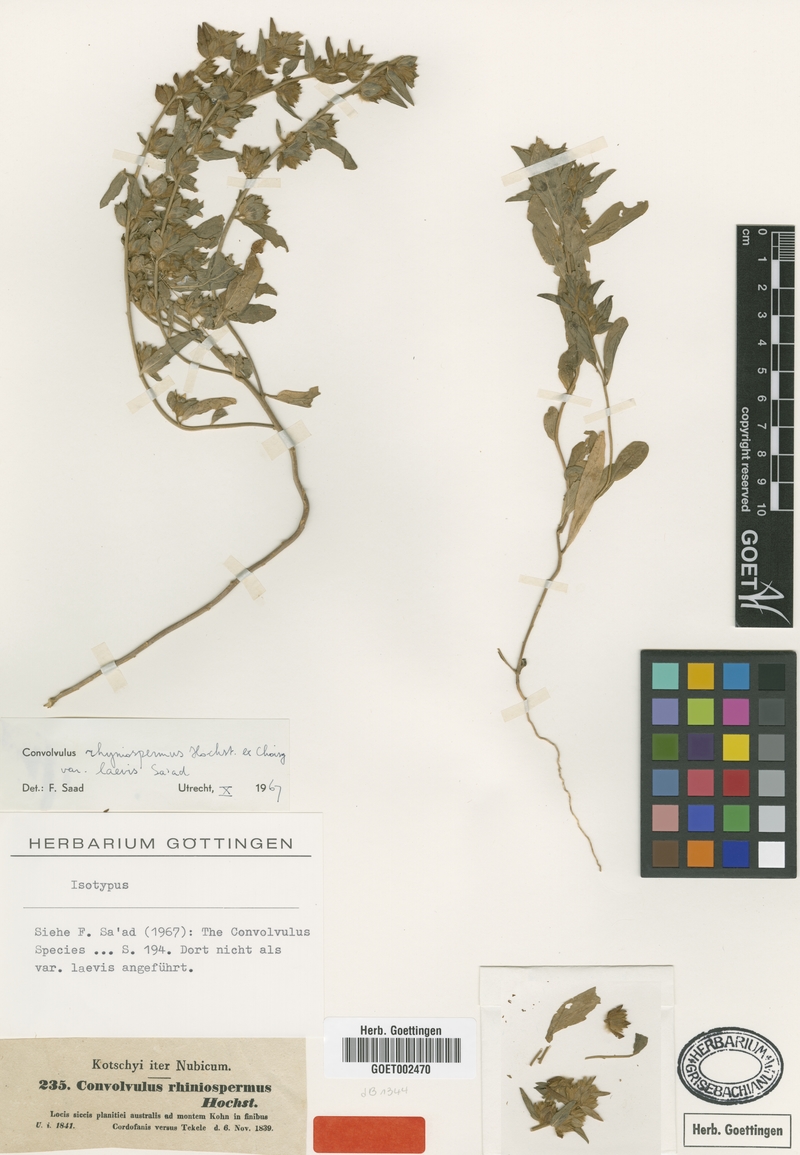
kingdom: Plantae
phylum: Tracheophyta
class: Magnoliopsida
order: Solanales
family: Convolvulaceae
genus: Convolvulus
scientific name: Convolvulus rhyniospermus
